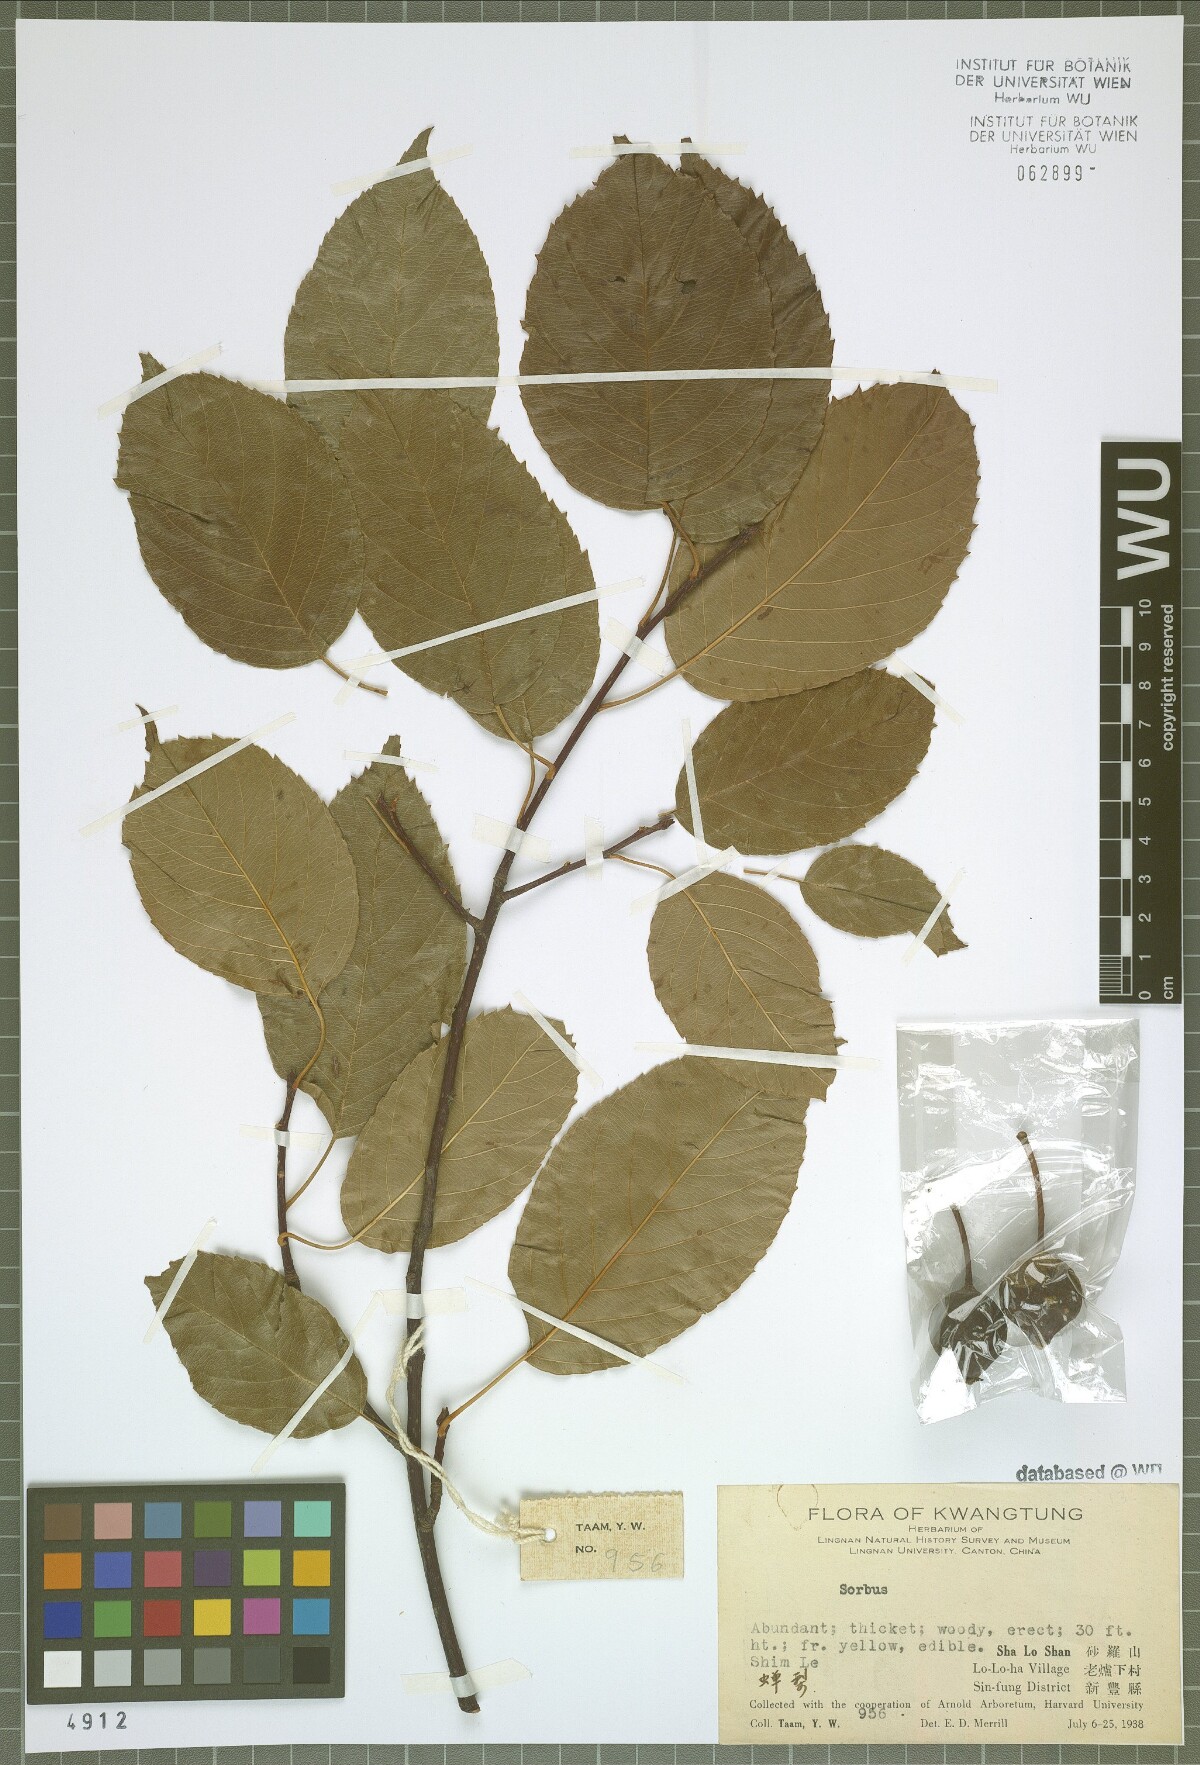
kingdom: Plantae
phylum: Tracheophyta
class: Magnoliopsida
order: Rosales
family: Rosaceae
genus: Sorbus
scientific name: Sorbus
